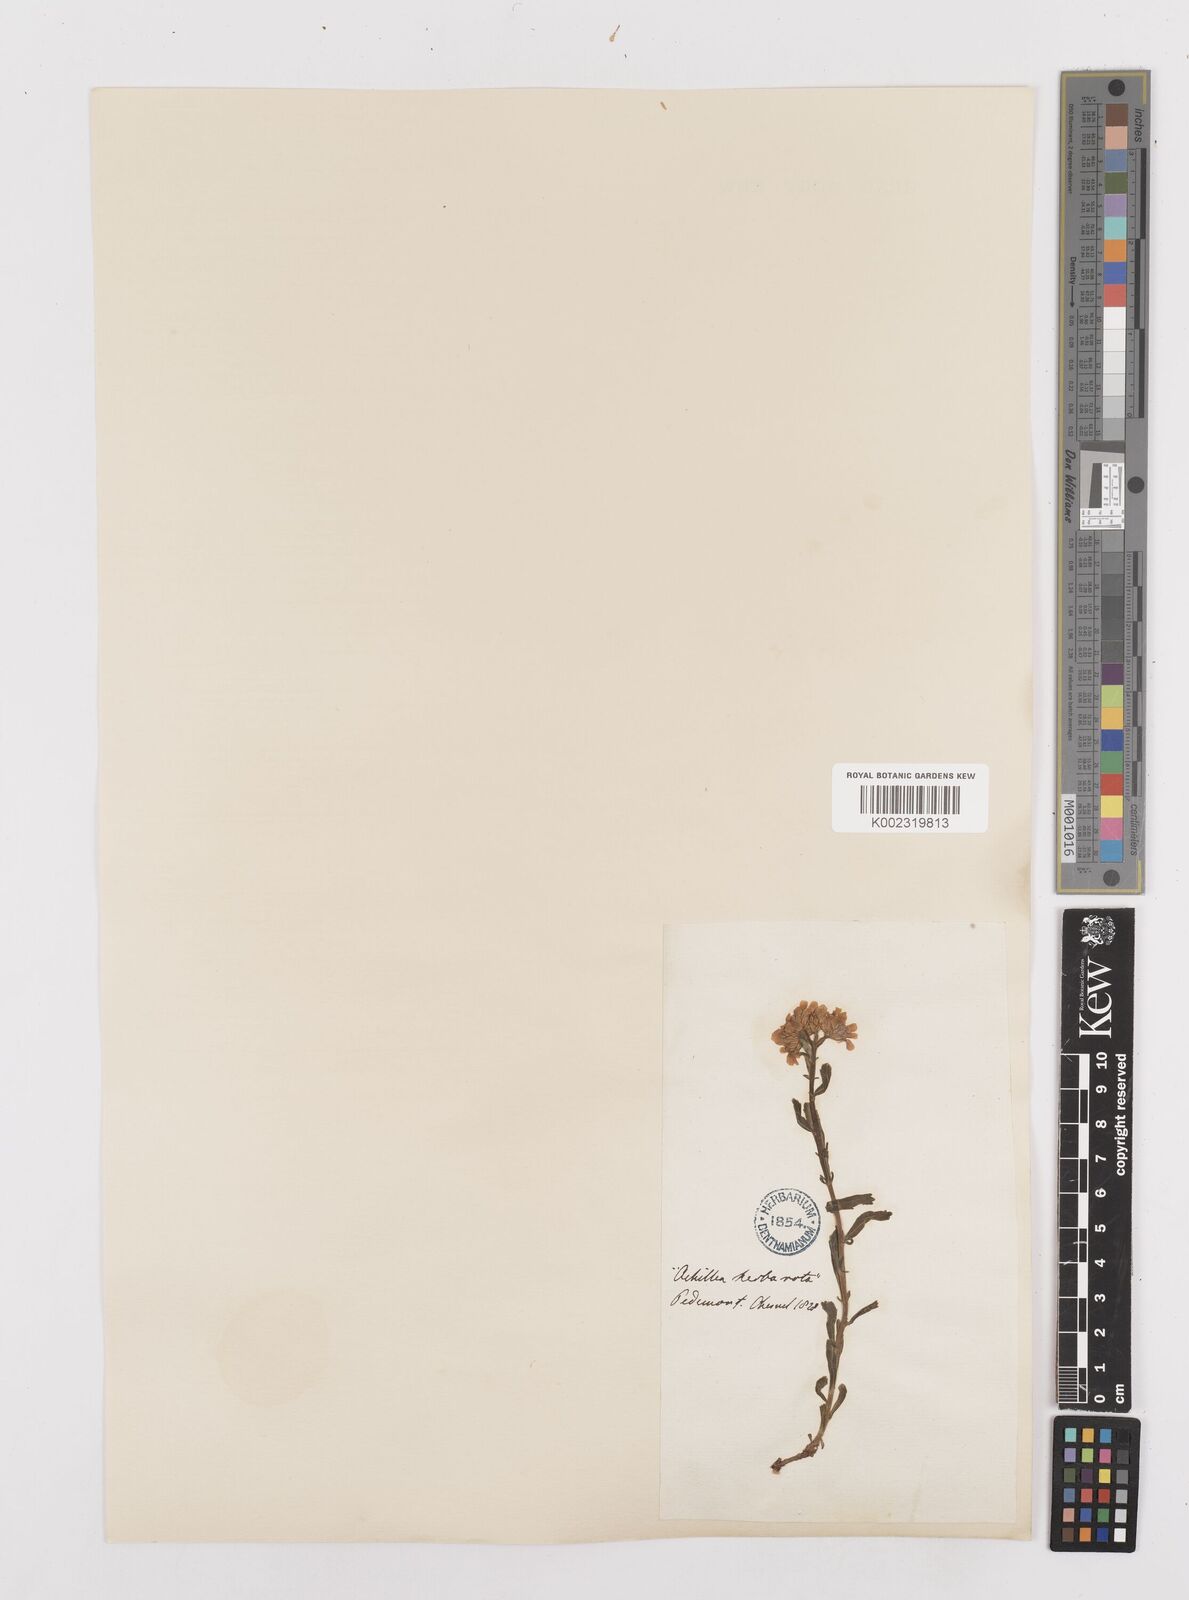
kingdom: Plantae
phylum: Tracheophyta
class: Magnoliopsida
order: Asterales
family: Asteraceae
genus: Achillea
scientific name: Achillea erba-rotta
